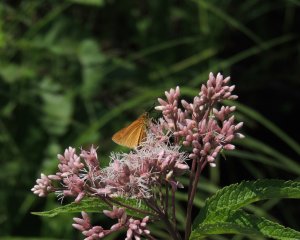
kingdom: Animalia
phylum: Arthropoda
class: Insecta
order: Lepidoptera
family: Hesperiidae
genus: Euphyes
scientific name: Euphyes dion
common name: Dion Skipper
